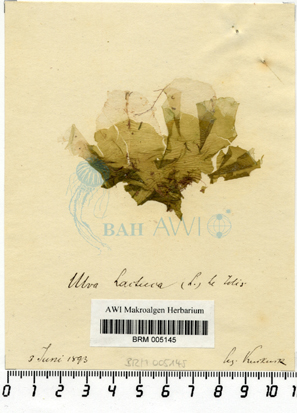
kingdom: Plantae
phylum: Chlorophyta
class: Ulvophyceae
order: Ulvales
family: Ulvaceae
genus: Ulva
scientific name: Ulva lactuca
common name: Sea lettuce
